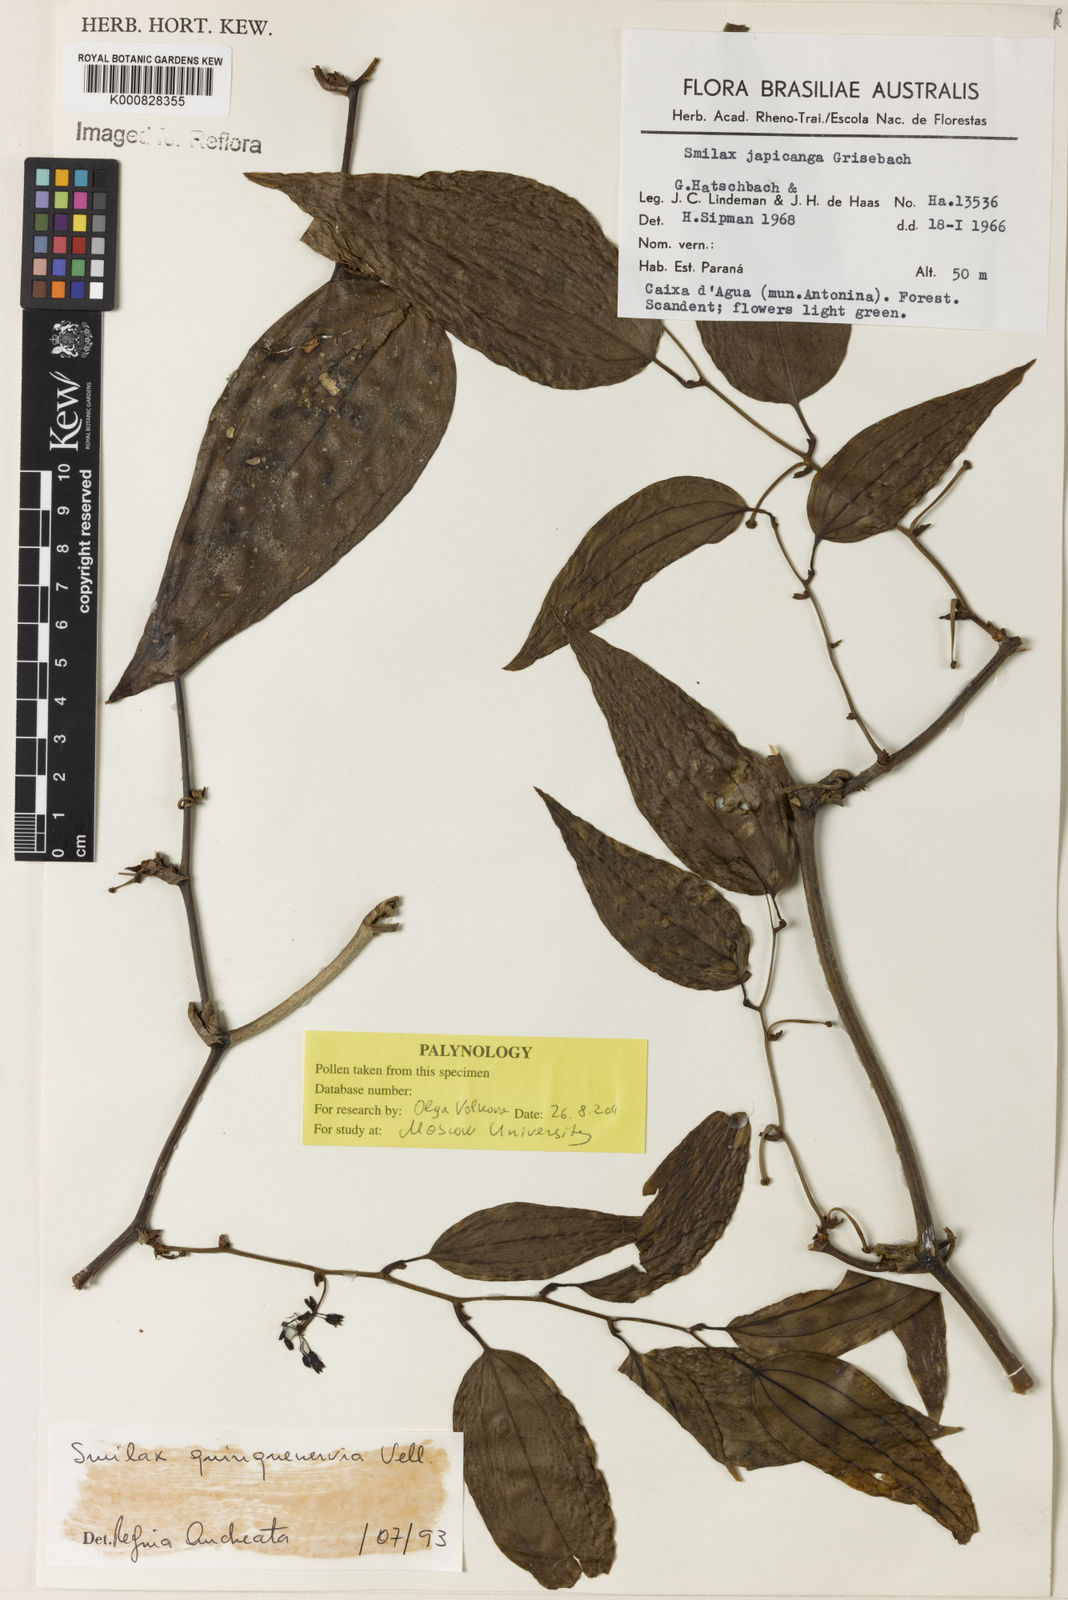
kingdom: Plantae
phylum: Tracheophyta
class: Liliopsida
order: Liliales
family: Smilacaceae
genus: Smilax
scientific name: Smilax quinquenervia
